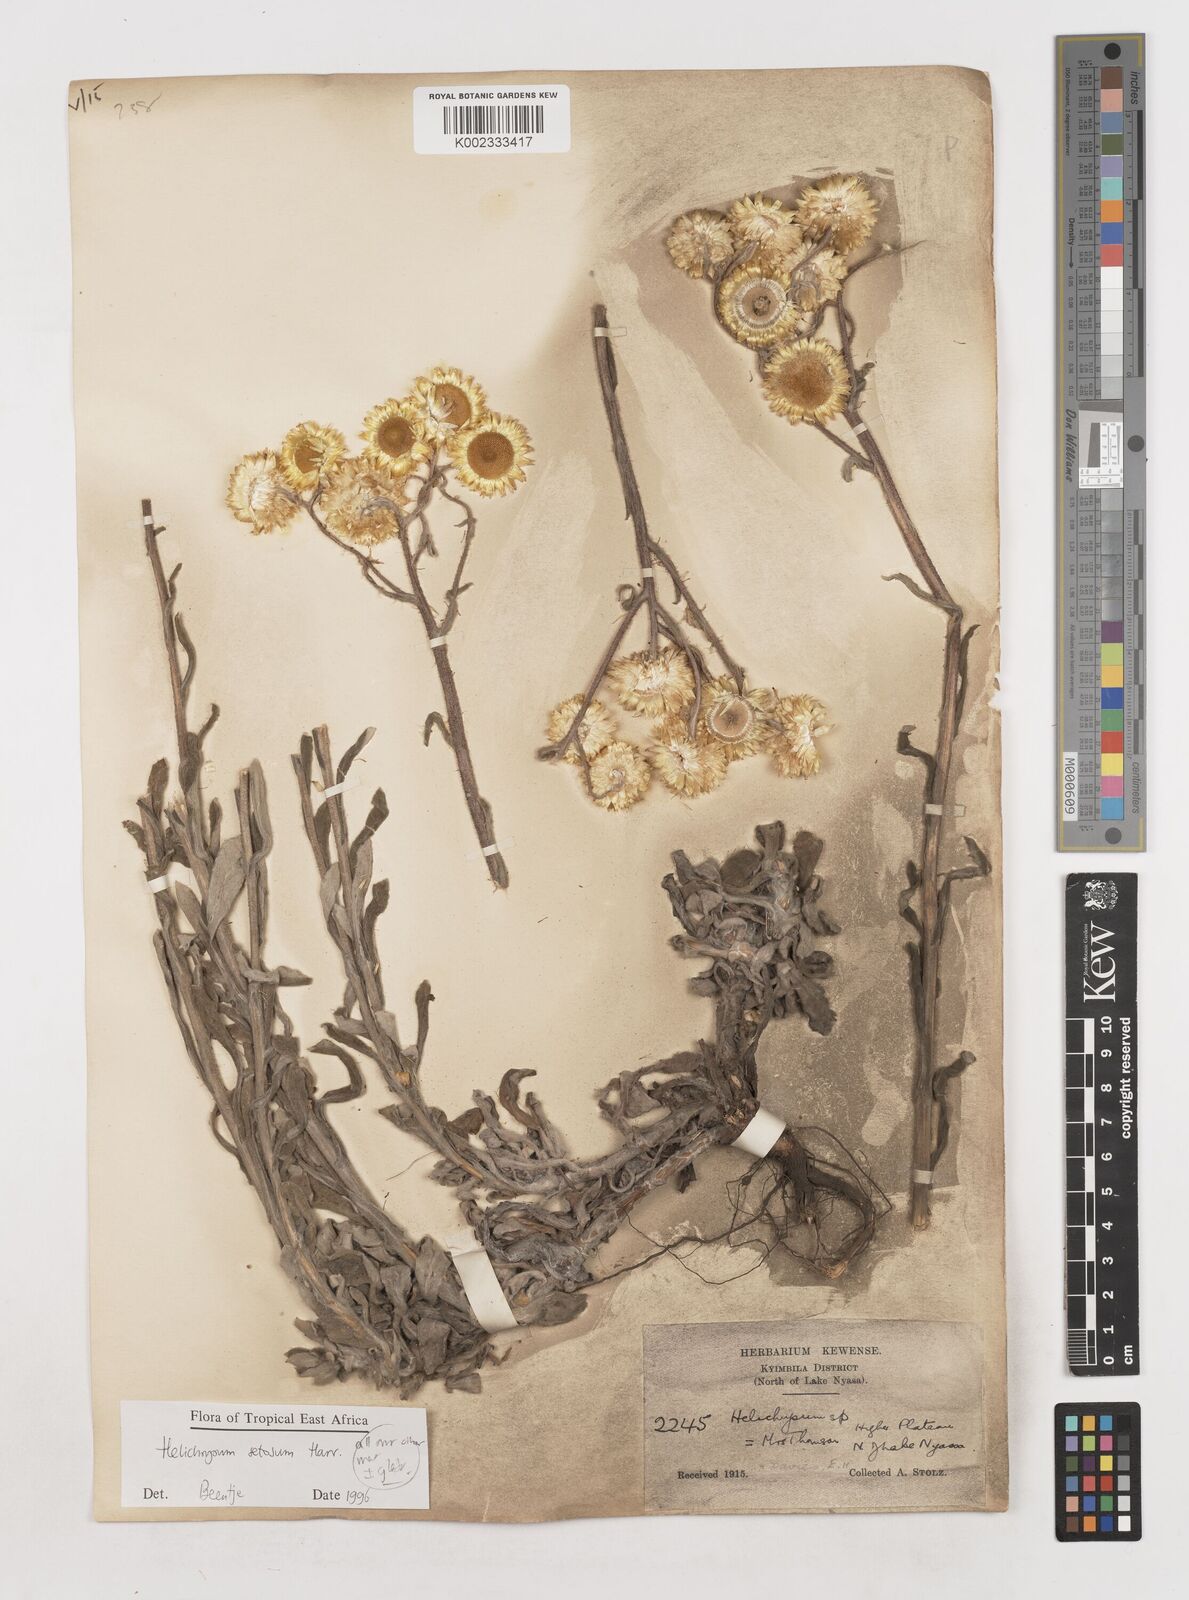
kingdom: Plantae
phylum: Tracheophyta
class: Magnoliopsida
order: Asterales
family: Asteraceae
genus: Helichrysum
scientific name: Helichrysum setosum
